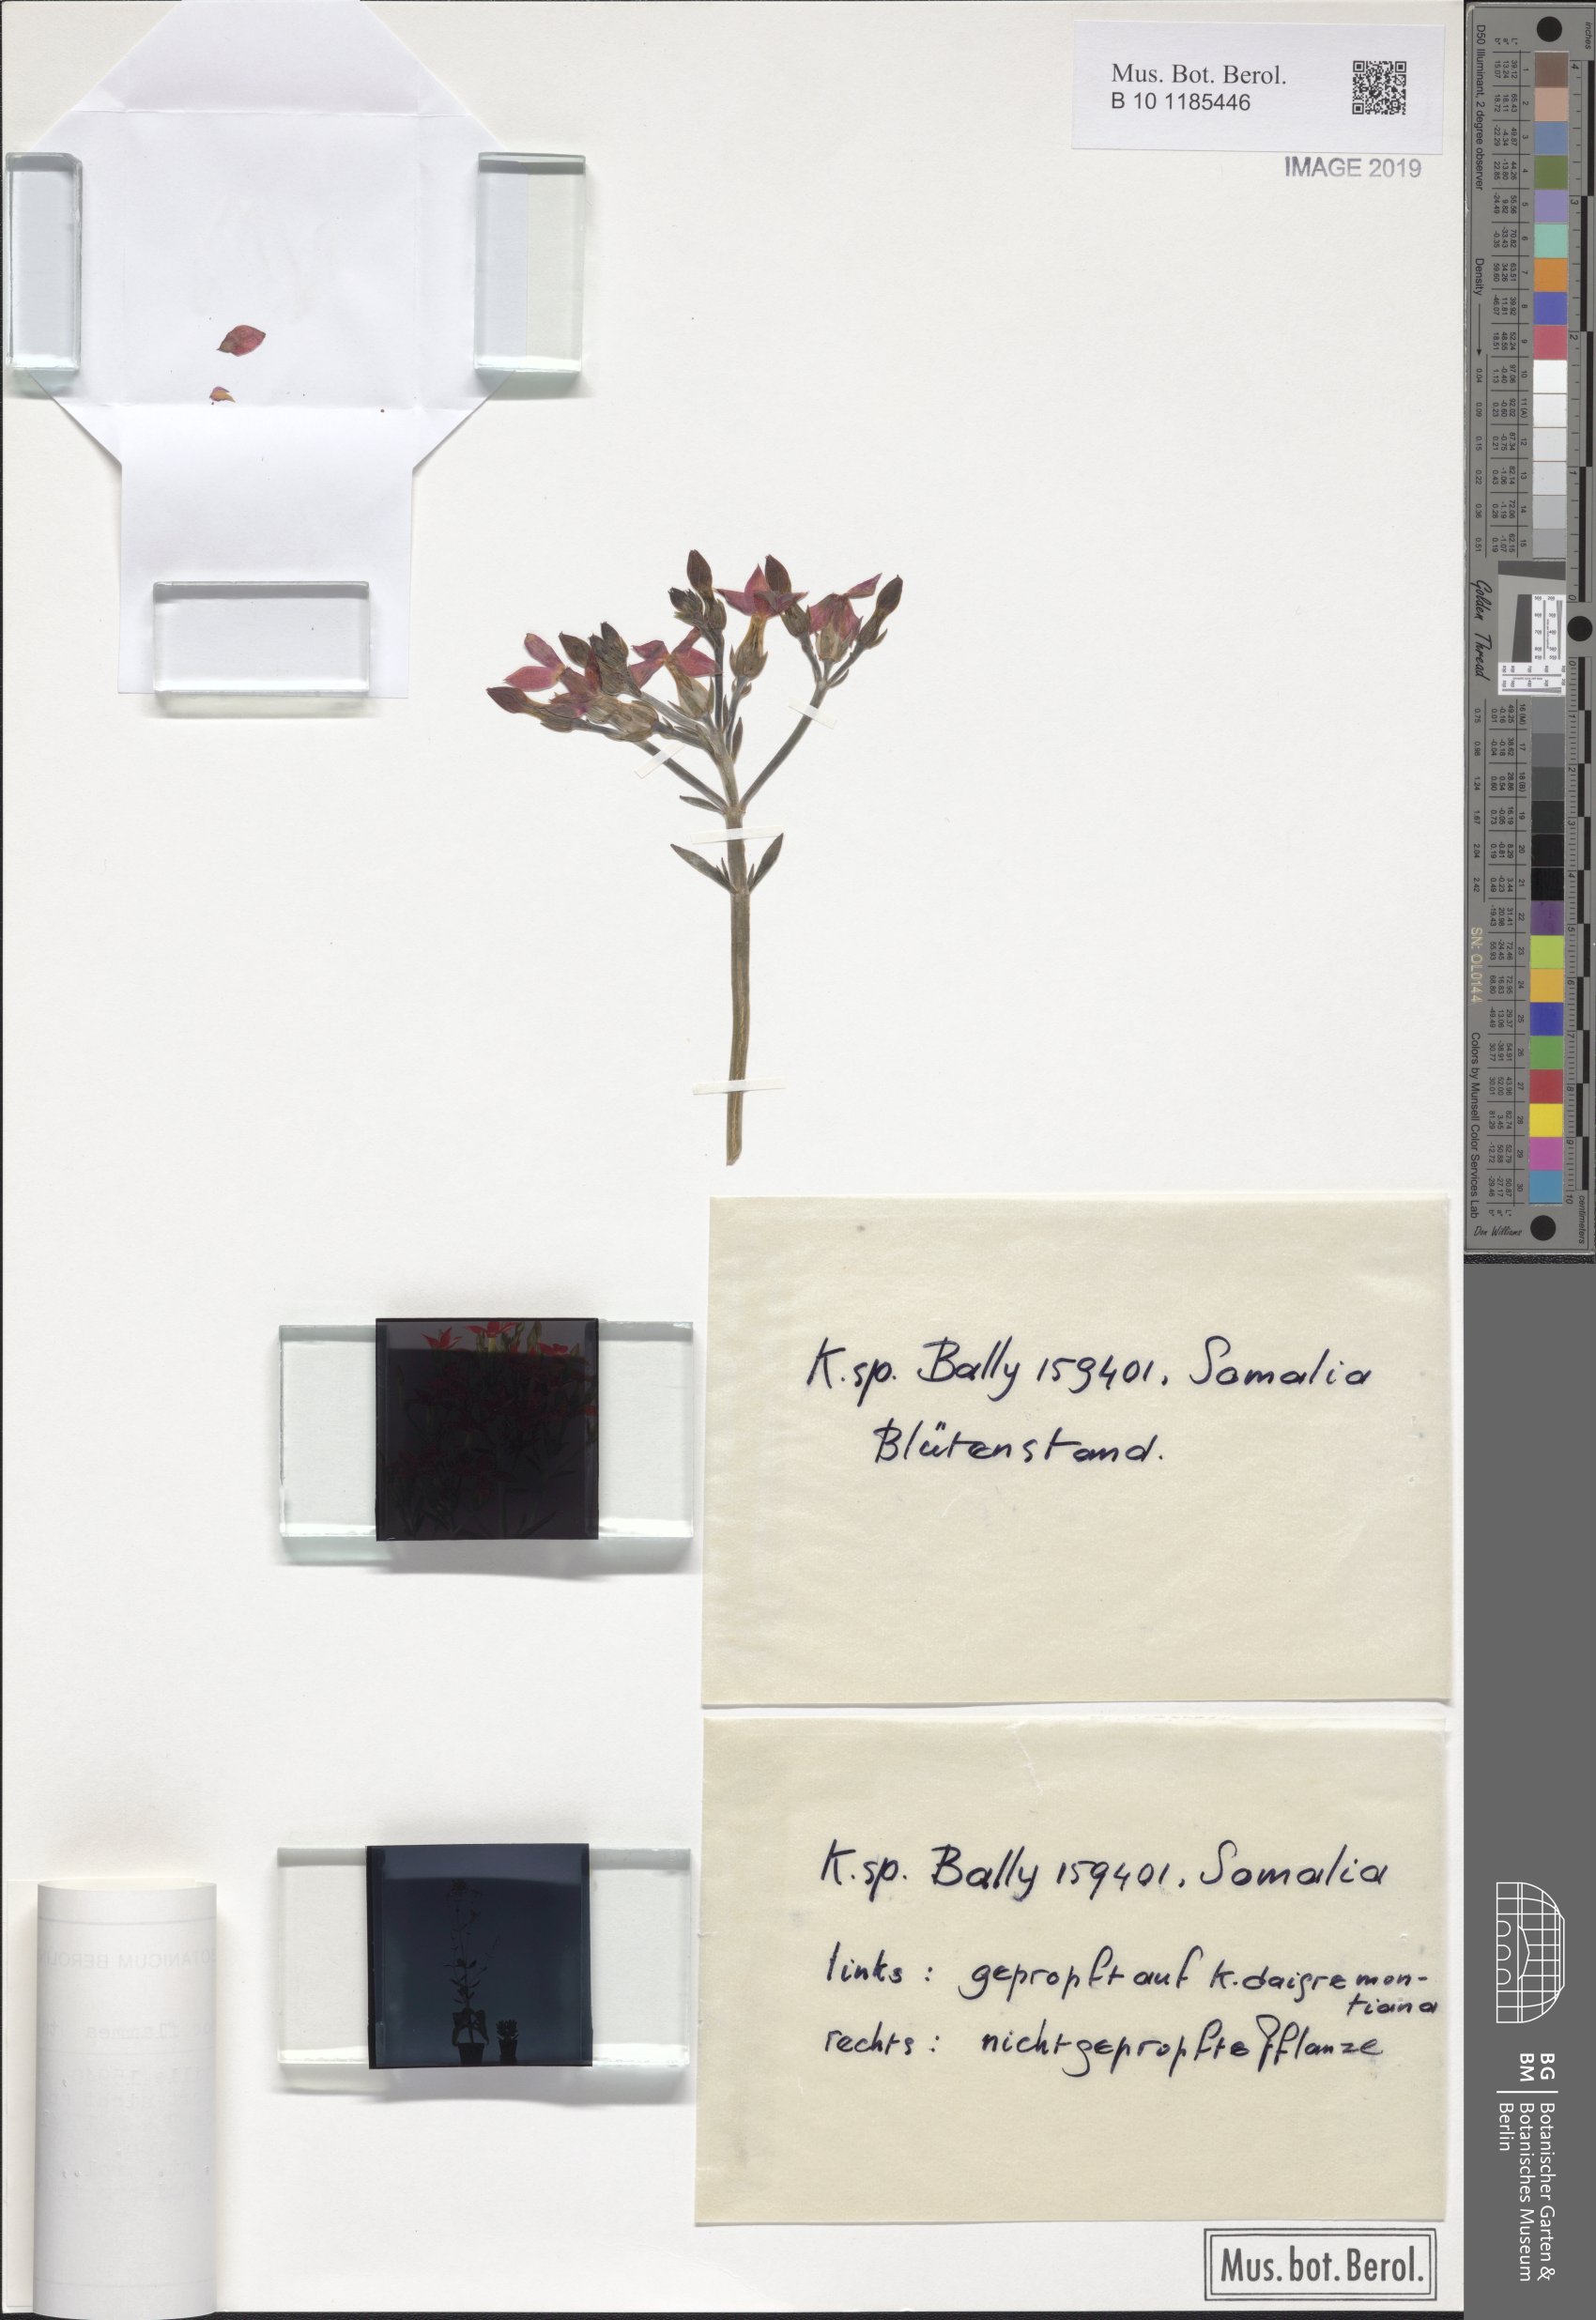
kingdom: Plantae
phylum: Tracheophyta
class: Magnoliopsida
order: Saxifragales
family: Crassulaceae
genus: Kalanchoe
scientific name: Kalanchoe glaucescens
